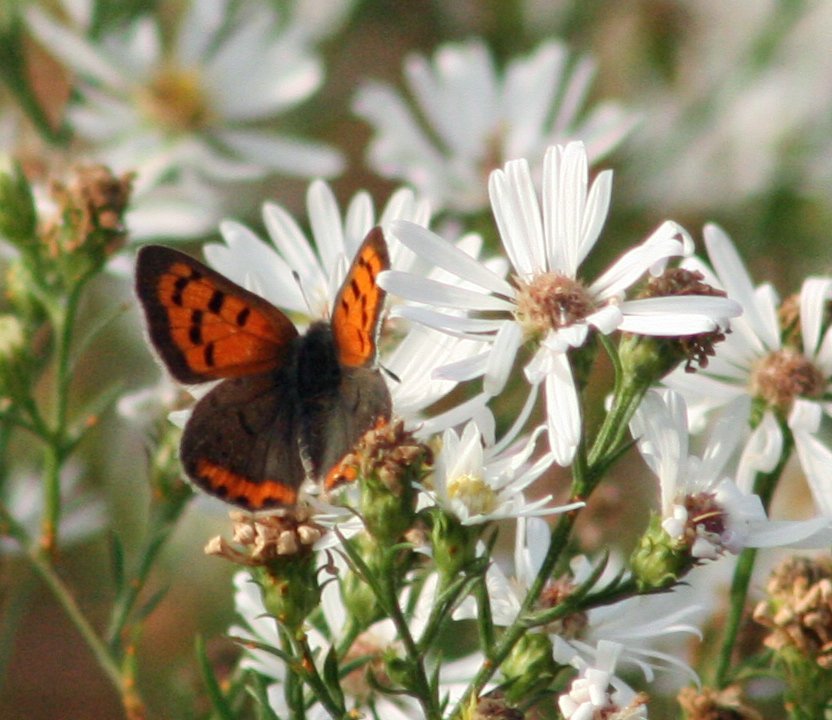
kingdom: Animalia
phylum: Arthropoda
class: Insecta
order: Lepidoptera
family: Lycaenidae
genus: Lycaena
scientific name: Lycaena phlaeas
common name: American Copper
